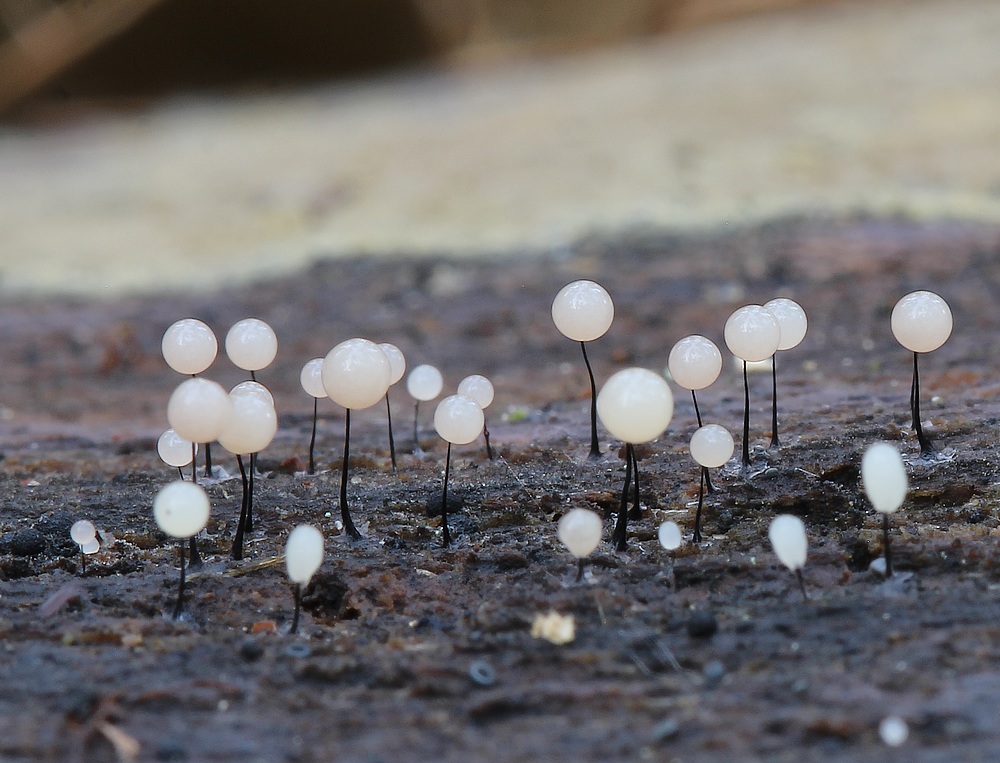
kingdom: Protozoa
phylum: Mycetozoa
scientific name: Mycetozoa
